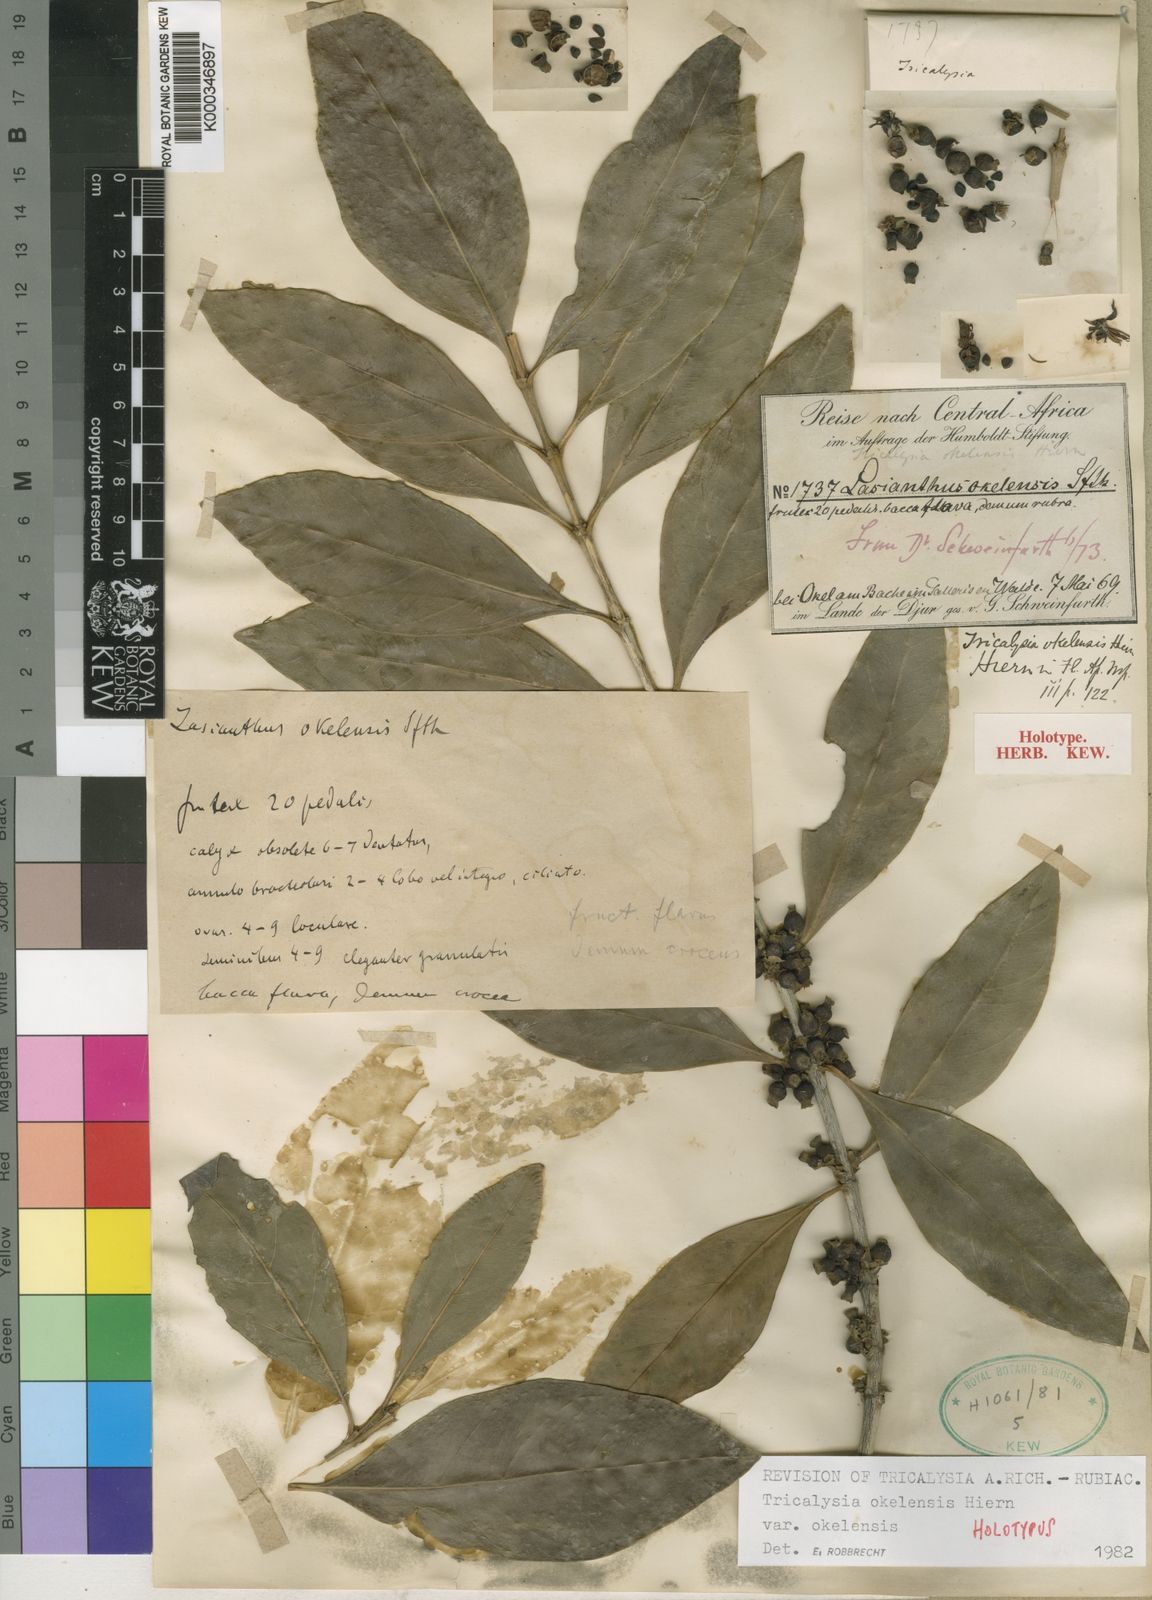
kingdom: Plantae
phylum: Tracheophyta
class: Magnoliopsida
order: Gentianales
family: Rubiaceae
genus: Tricalysia
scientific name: Tricalysia okelensis
